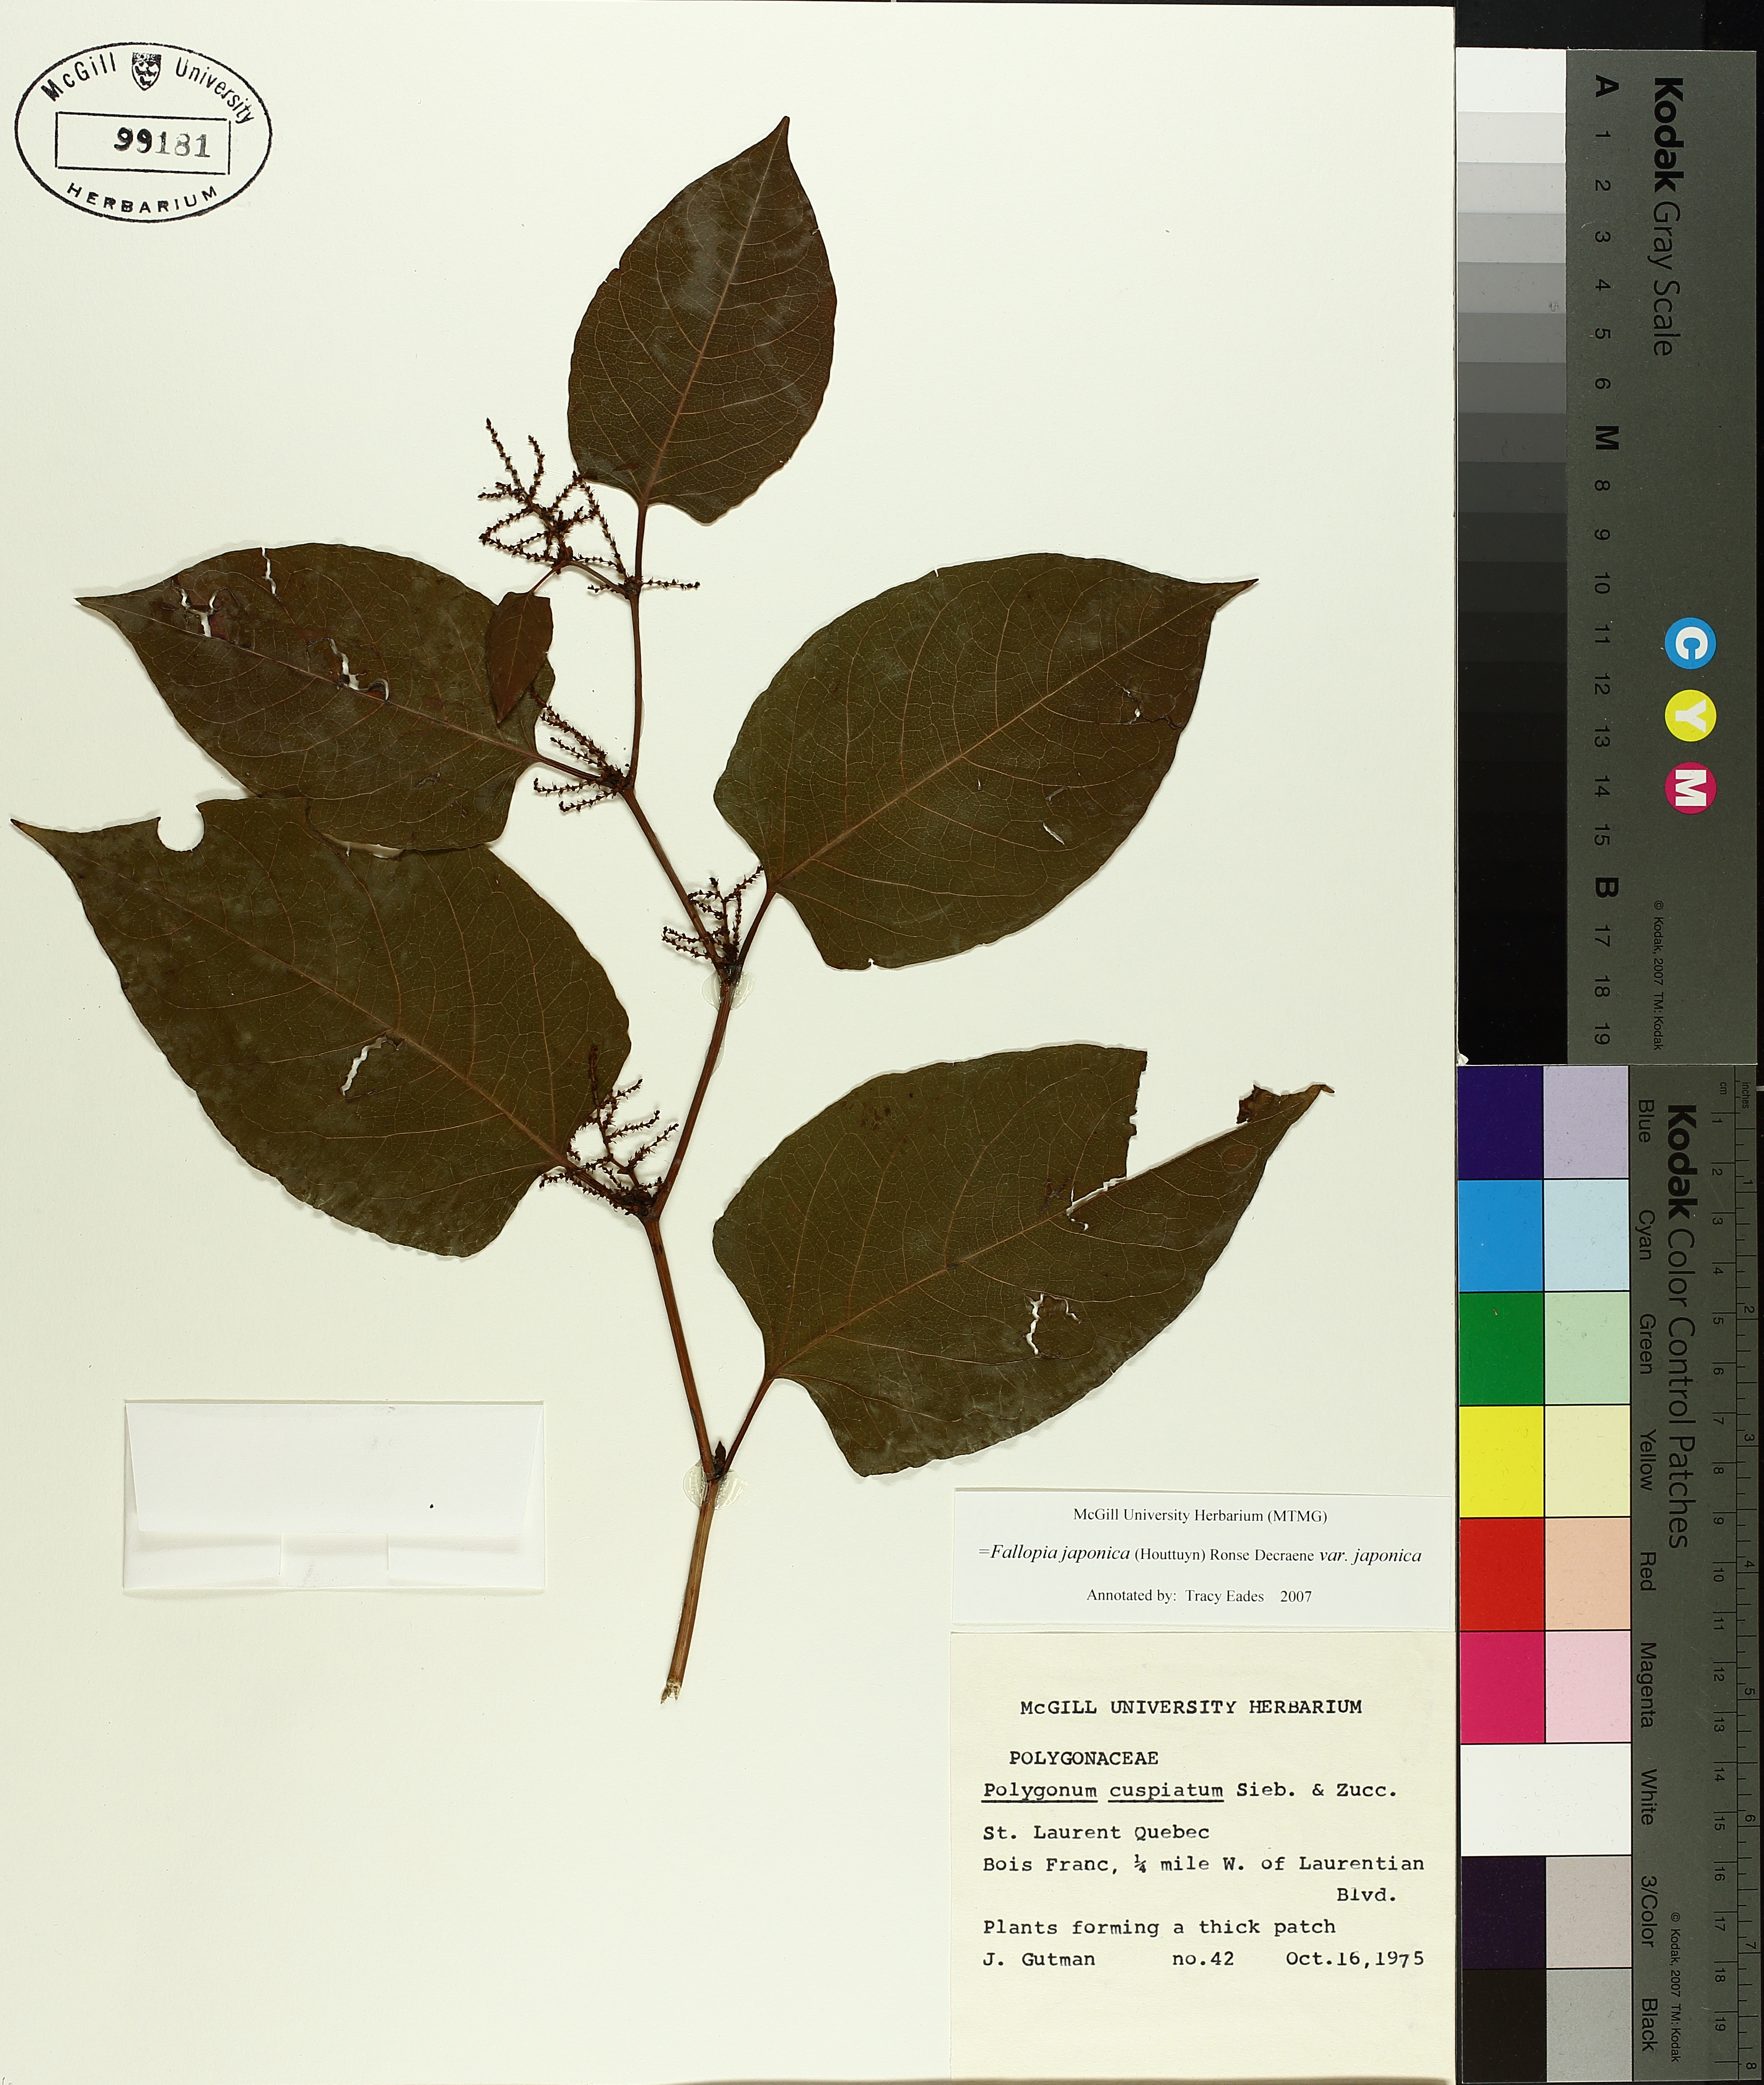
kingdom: Plantae
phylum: Tracheophyta
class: Magnoliopsida
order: Caryophyllales
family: Polygonaceae
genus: Reynoutria
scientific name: Reynoutria japonica
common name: Japanese knotweed
